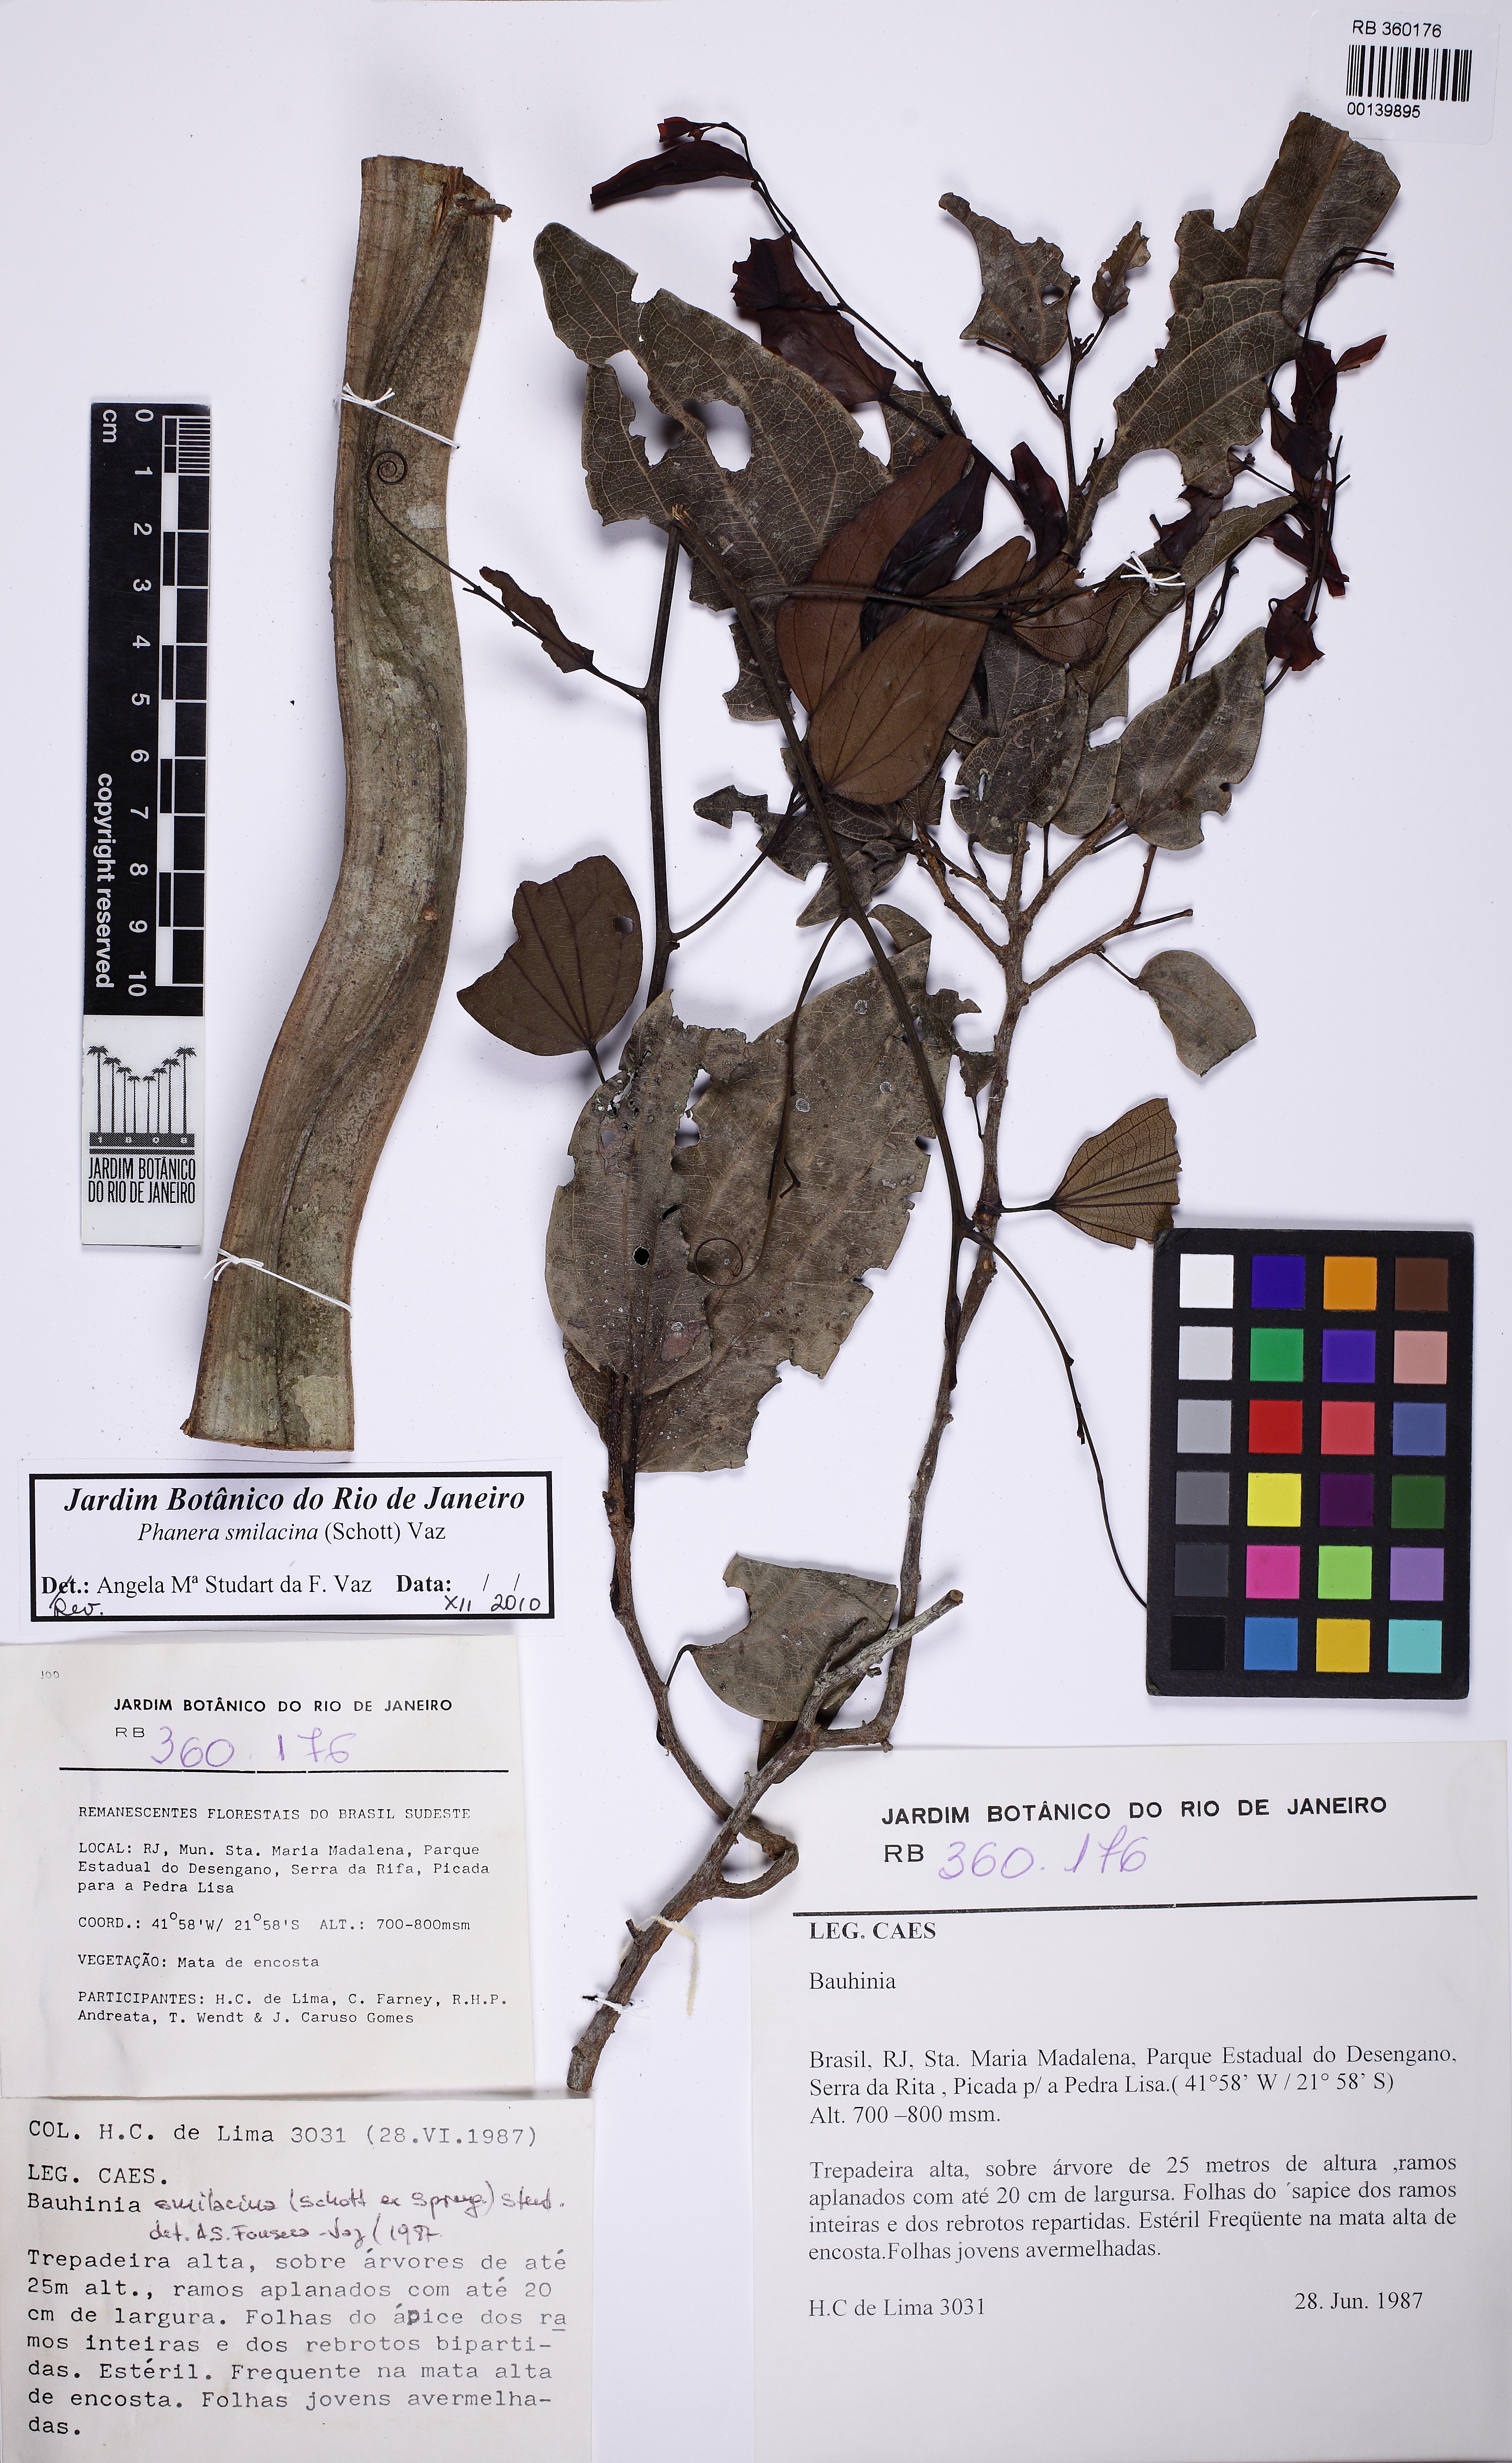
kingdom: Plantae
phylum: Tracheophyta
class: Magnoliopsida
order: Fabales
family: Fabaceae
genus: Bauhinia
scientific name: Bauhinia
